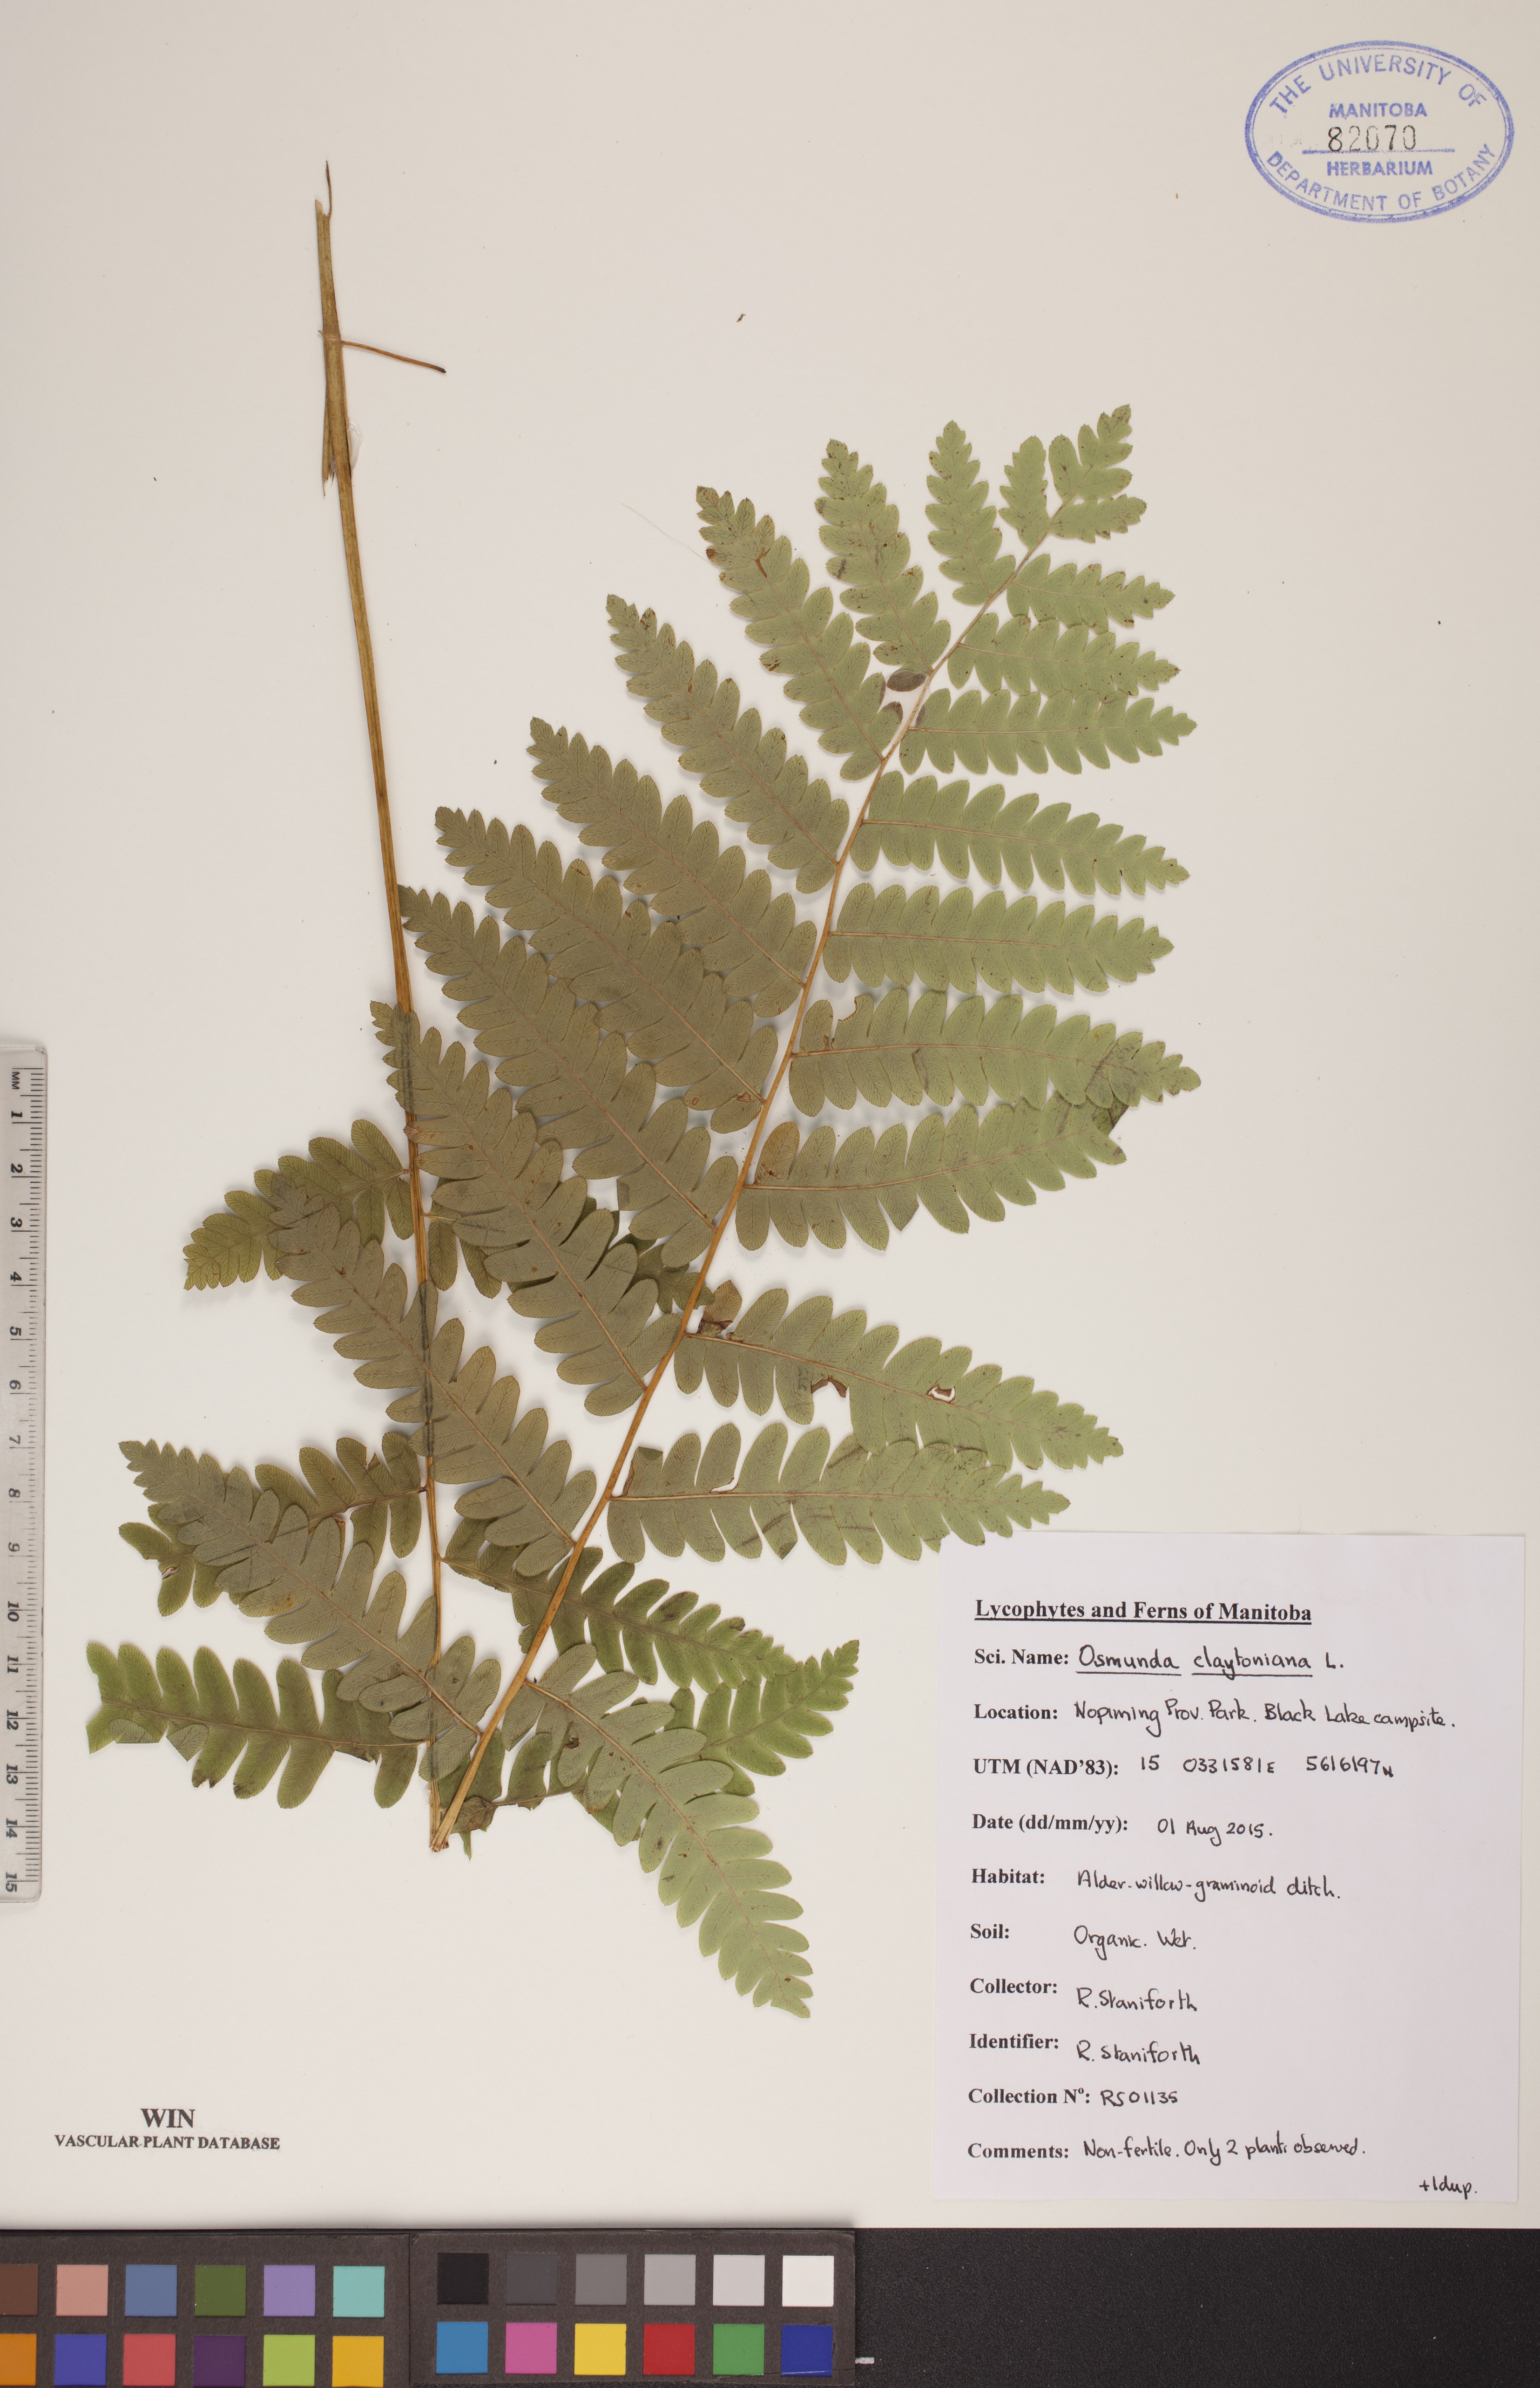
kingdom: Plantae
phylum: Tracheophyta
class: Polypodiopsida
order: Osmundales
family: Osmundaceae
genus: Claytosmunda
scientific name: Claytosmunda claytoniana
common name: Clayton's fern
